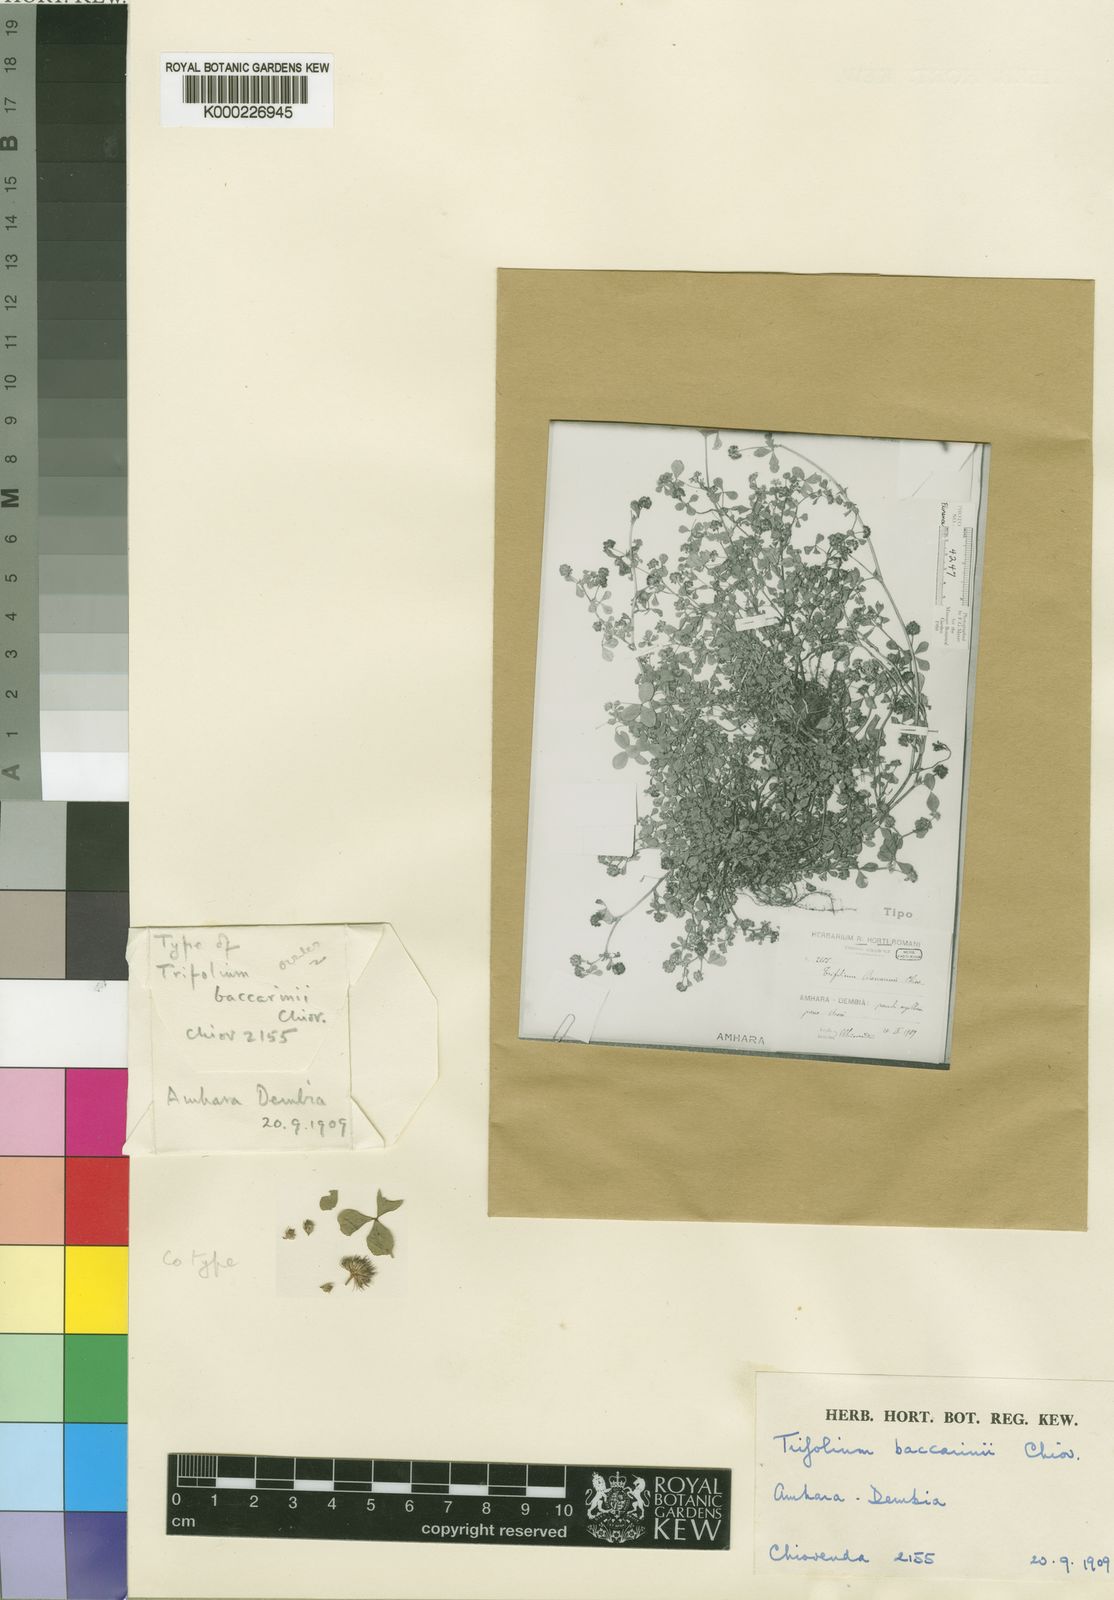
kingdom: Plantae
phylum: Tracheophyta
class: Magnoliopsida
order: Fabales
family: Fabaceae
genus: Trifolium
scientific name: Trifolium baccarinii
